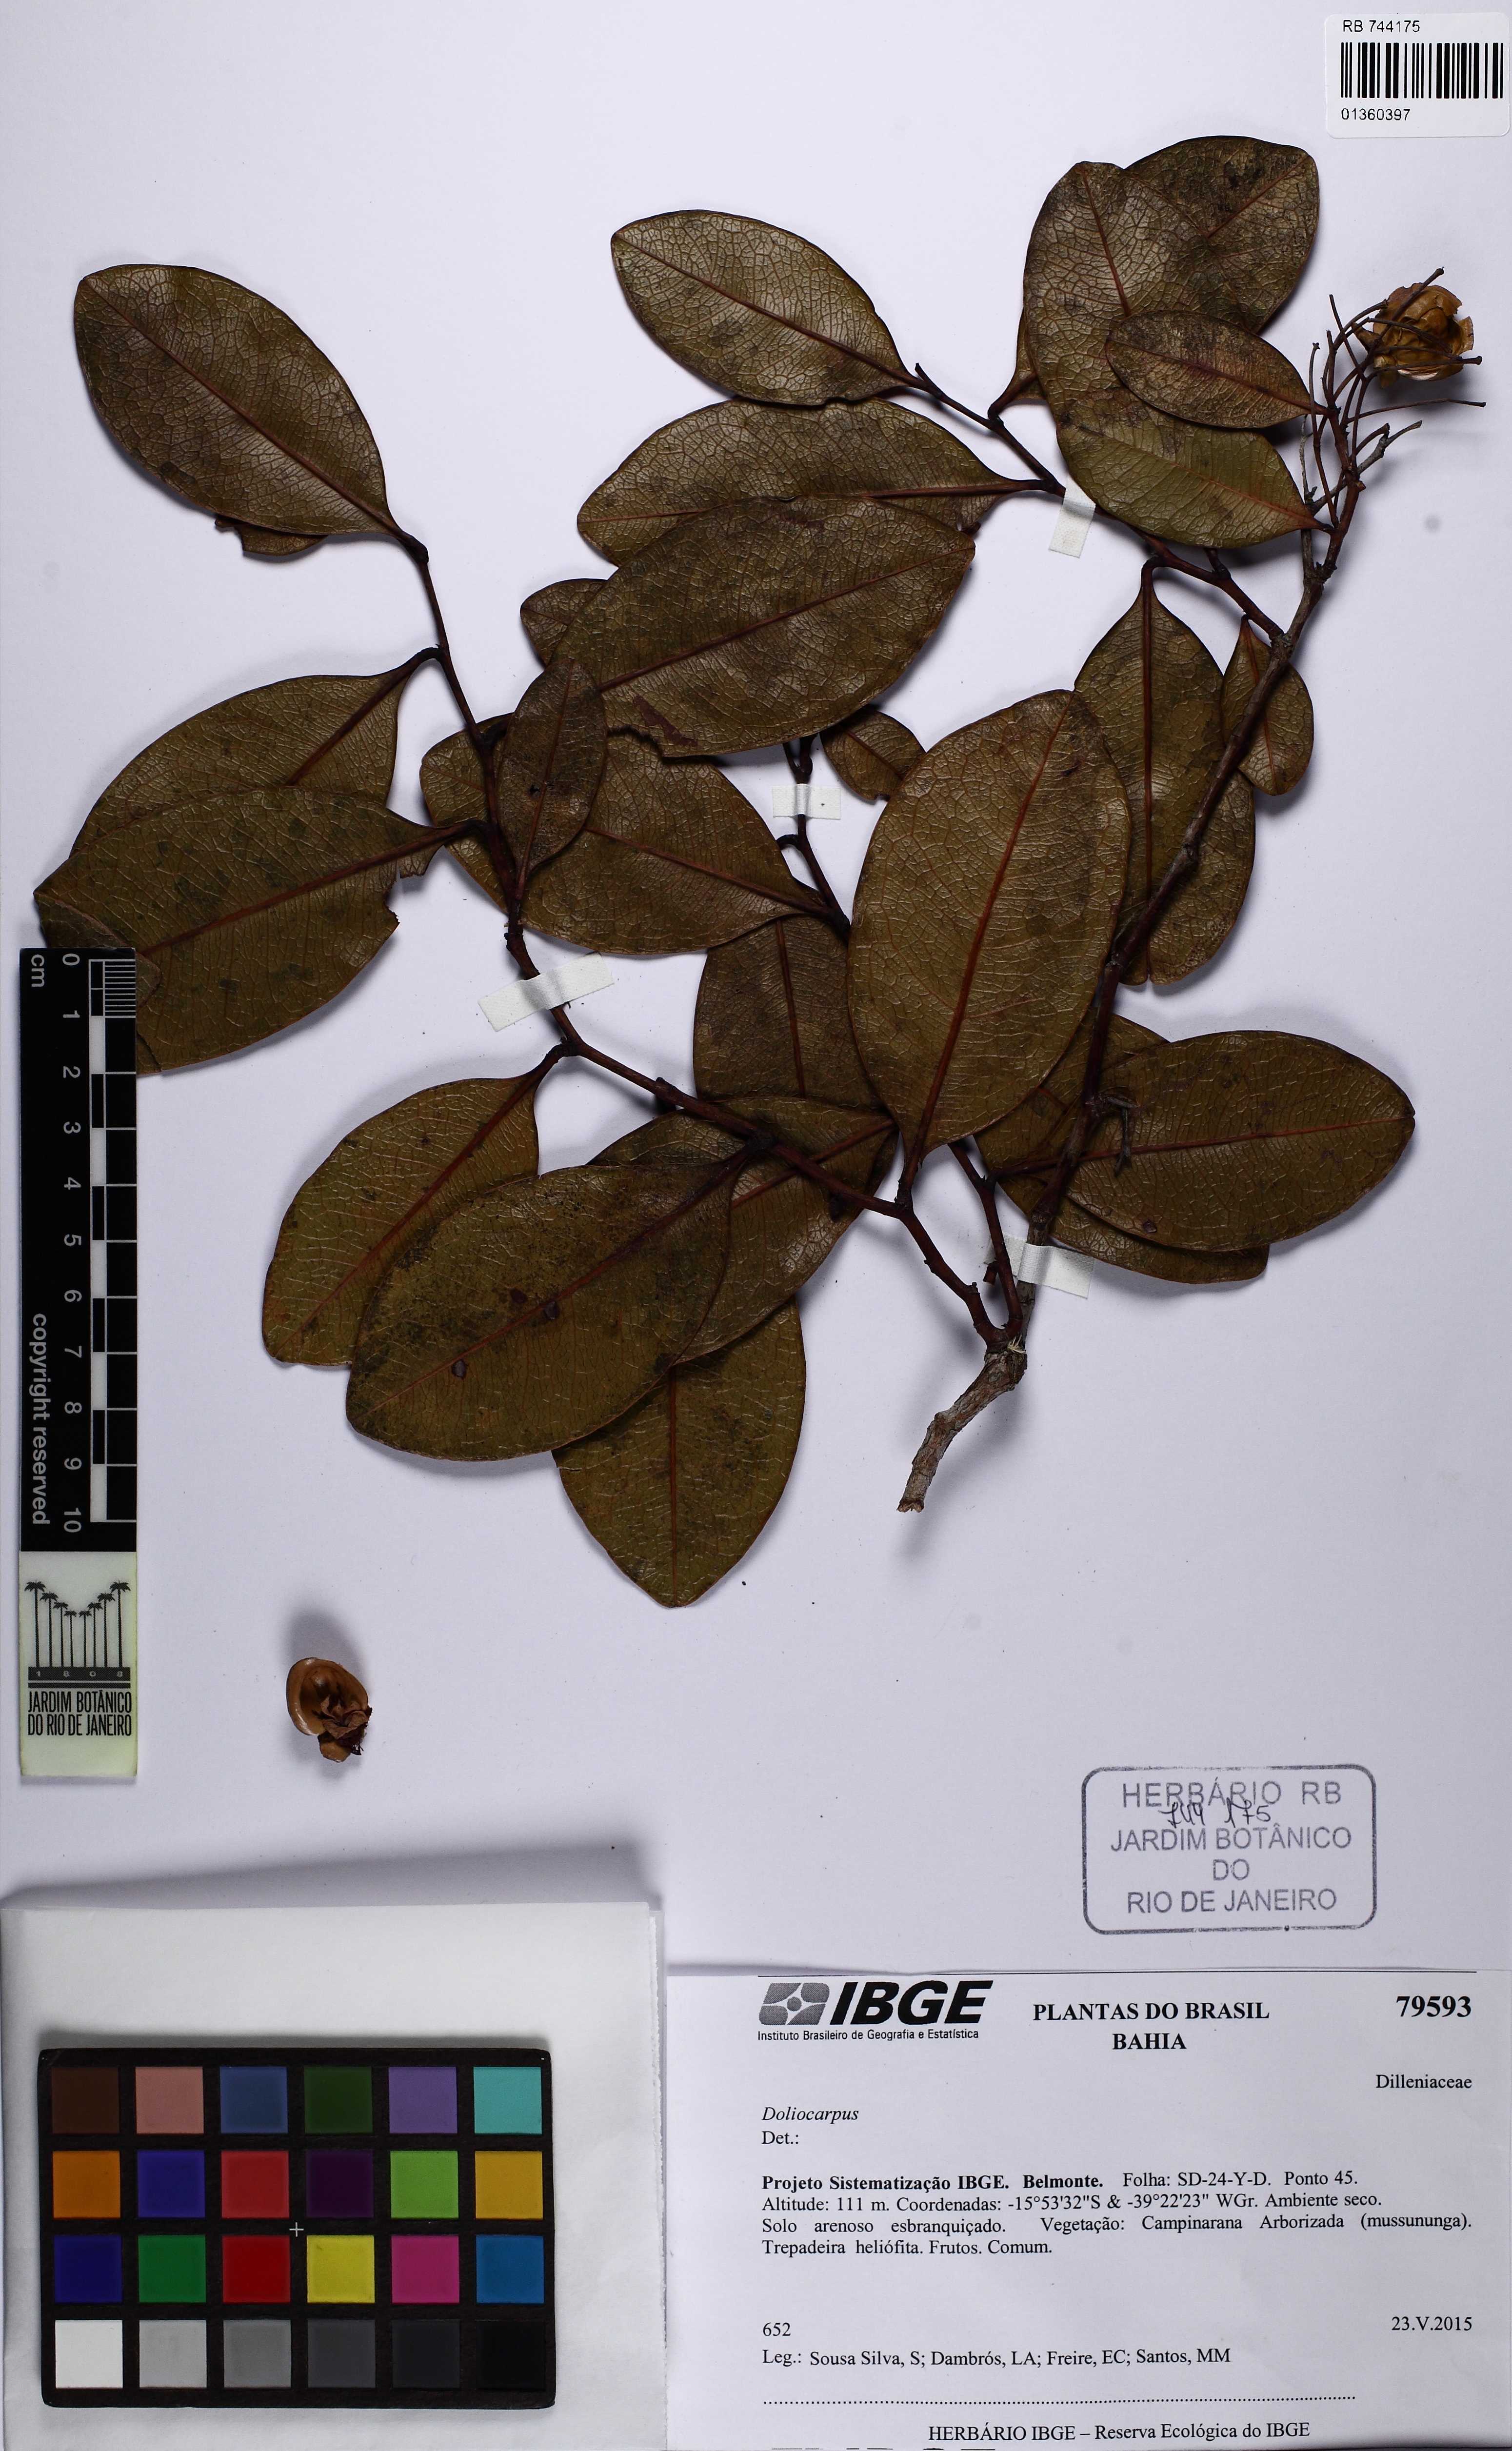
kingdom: Plantae
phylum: Tracheophyta
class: Magnoliopsida
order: Dilleniales
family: Dilleniaceae
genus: Davilla
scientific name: Davilla flexuosa
